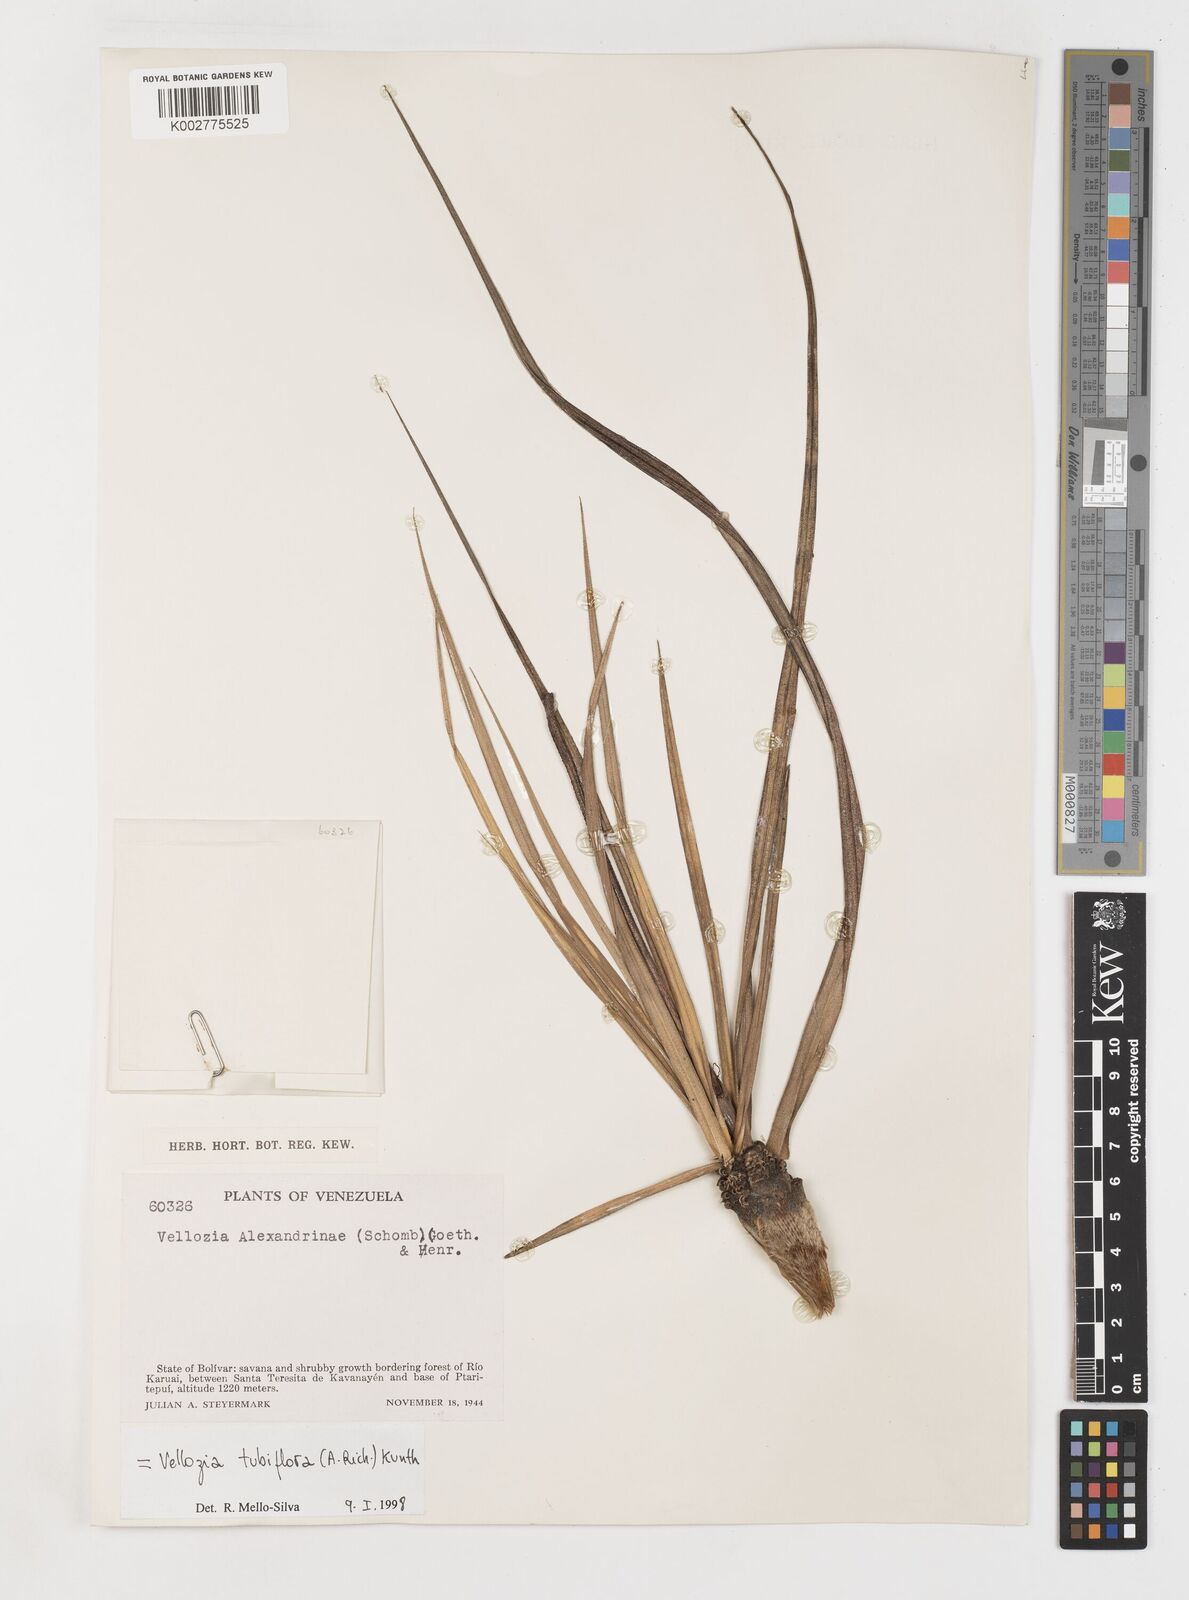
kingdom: Plantae
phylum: Tracheophyta
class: Liliopsida
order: Pandanales
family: Velloziaceae
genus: Vellozia
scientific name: Vellozia tubiflora
